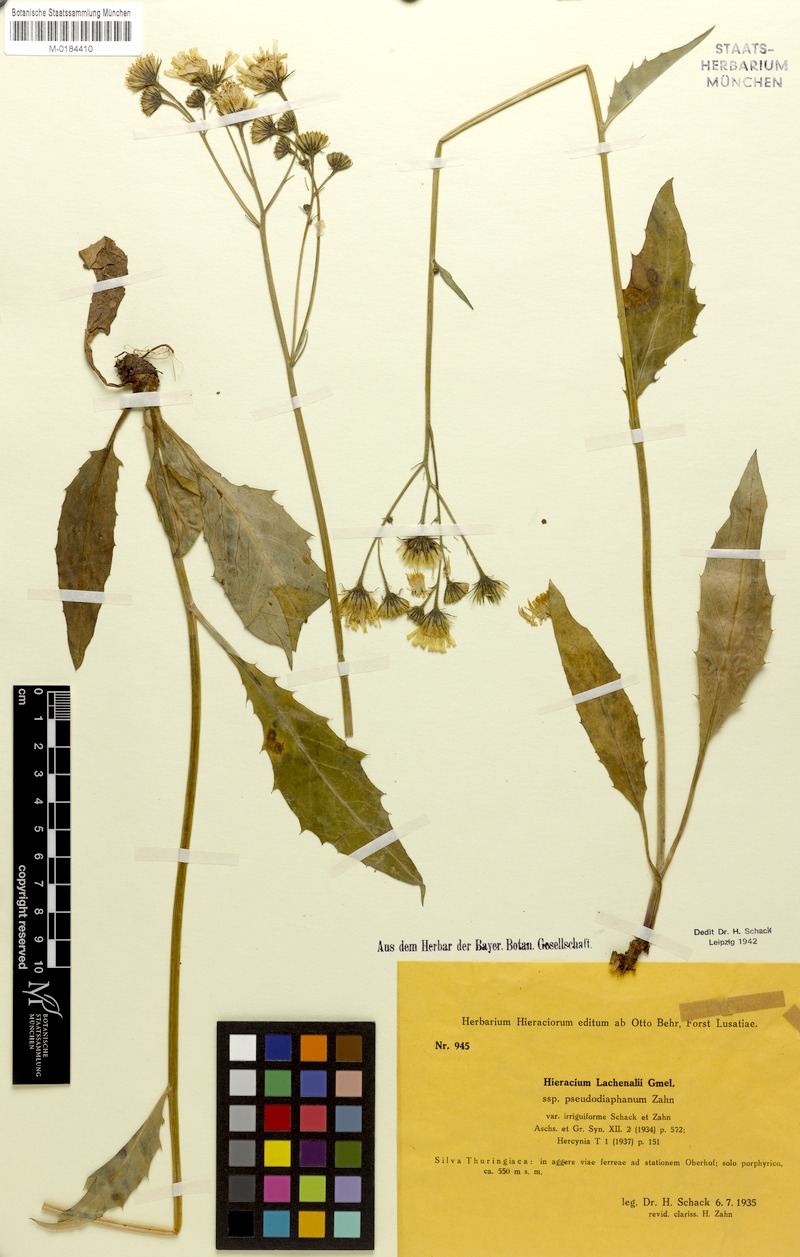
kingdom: Plantae
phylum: Tracheophyta
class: Magnoliopsida
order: Asterales
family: Asteraceae
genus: Hieracium
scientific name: Hieracium lachenalii
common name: Common hawkweed
